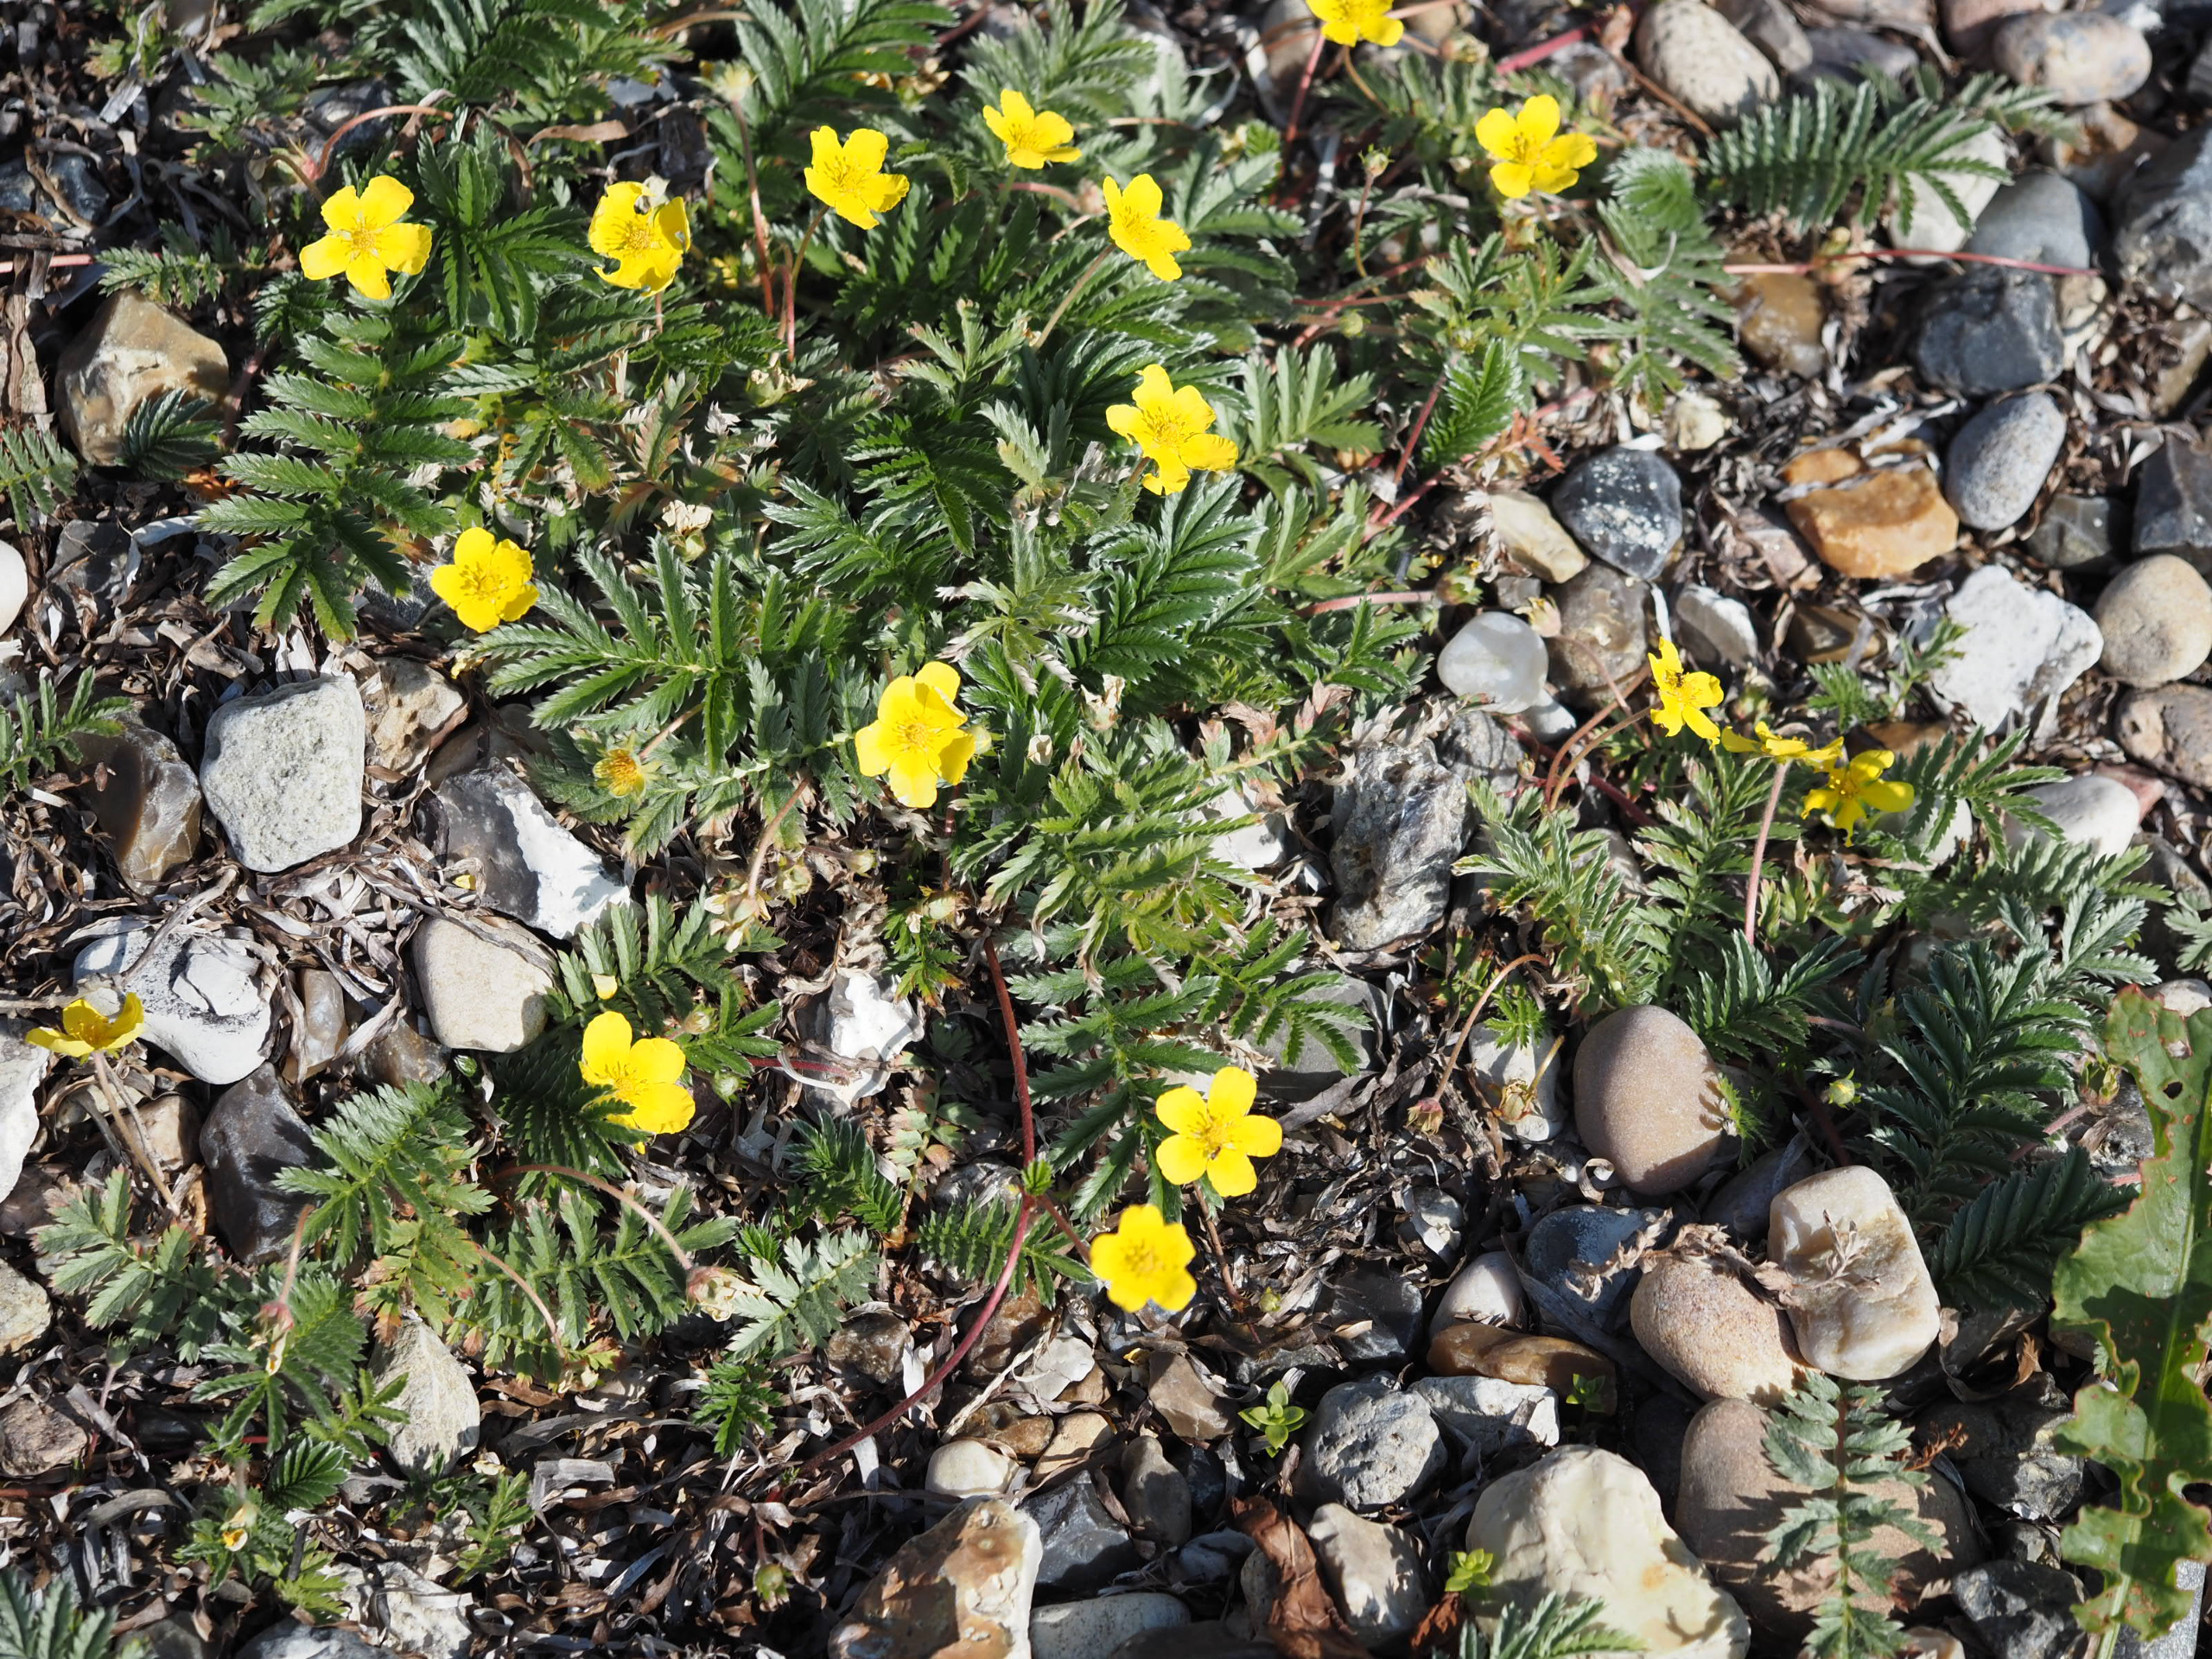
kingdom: Plantae
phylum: Tracheophyta
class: Magnoliopsida
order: Rosales
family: Rosaceae
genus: Argentina
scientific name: Argentina anserina
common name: Gåsepotentil
